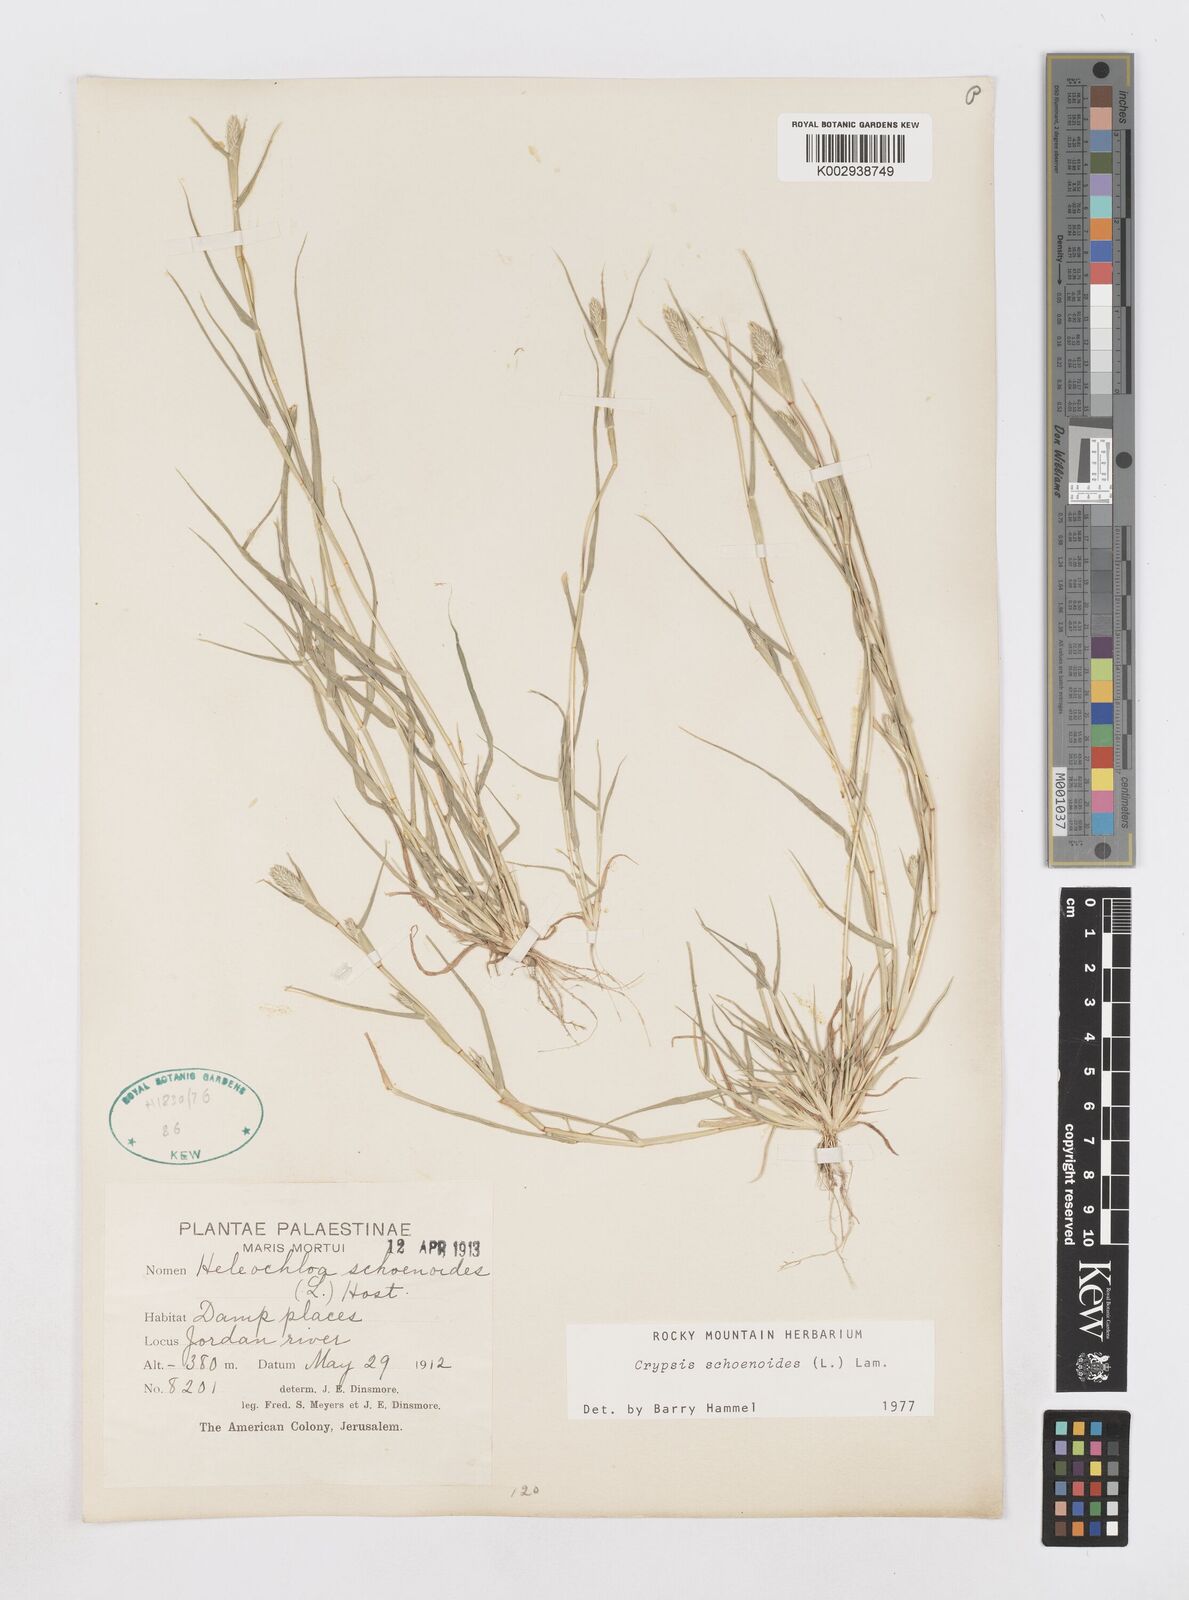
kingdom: Plantae
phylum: Tracheophyta
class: Liliopsida
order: Poales
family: Poaceae
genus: Sporobolus
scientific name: Sporobolus schoenoides
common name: Rush-like timothy
